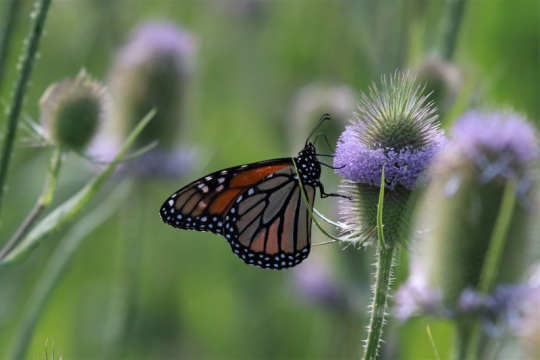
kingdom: Animalia
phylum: Arthropoda
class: Insecta
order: Lepidoptera
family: Nymphalidae
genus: Danaus
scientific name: Danaus plexippus
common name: Monarch
